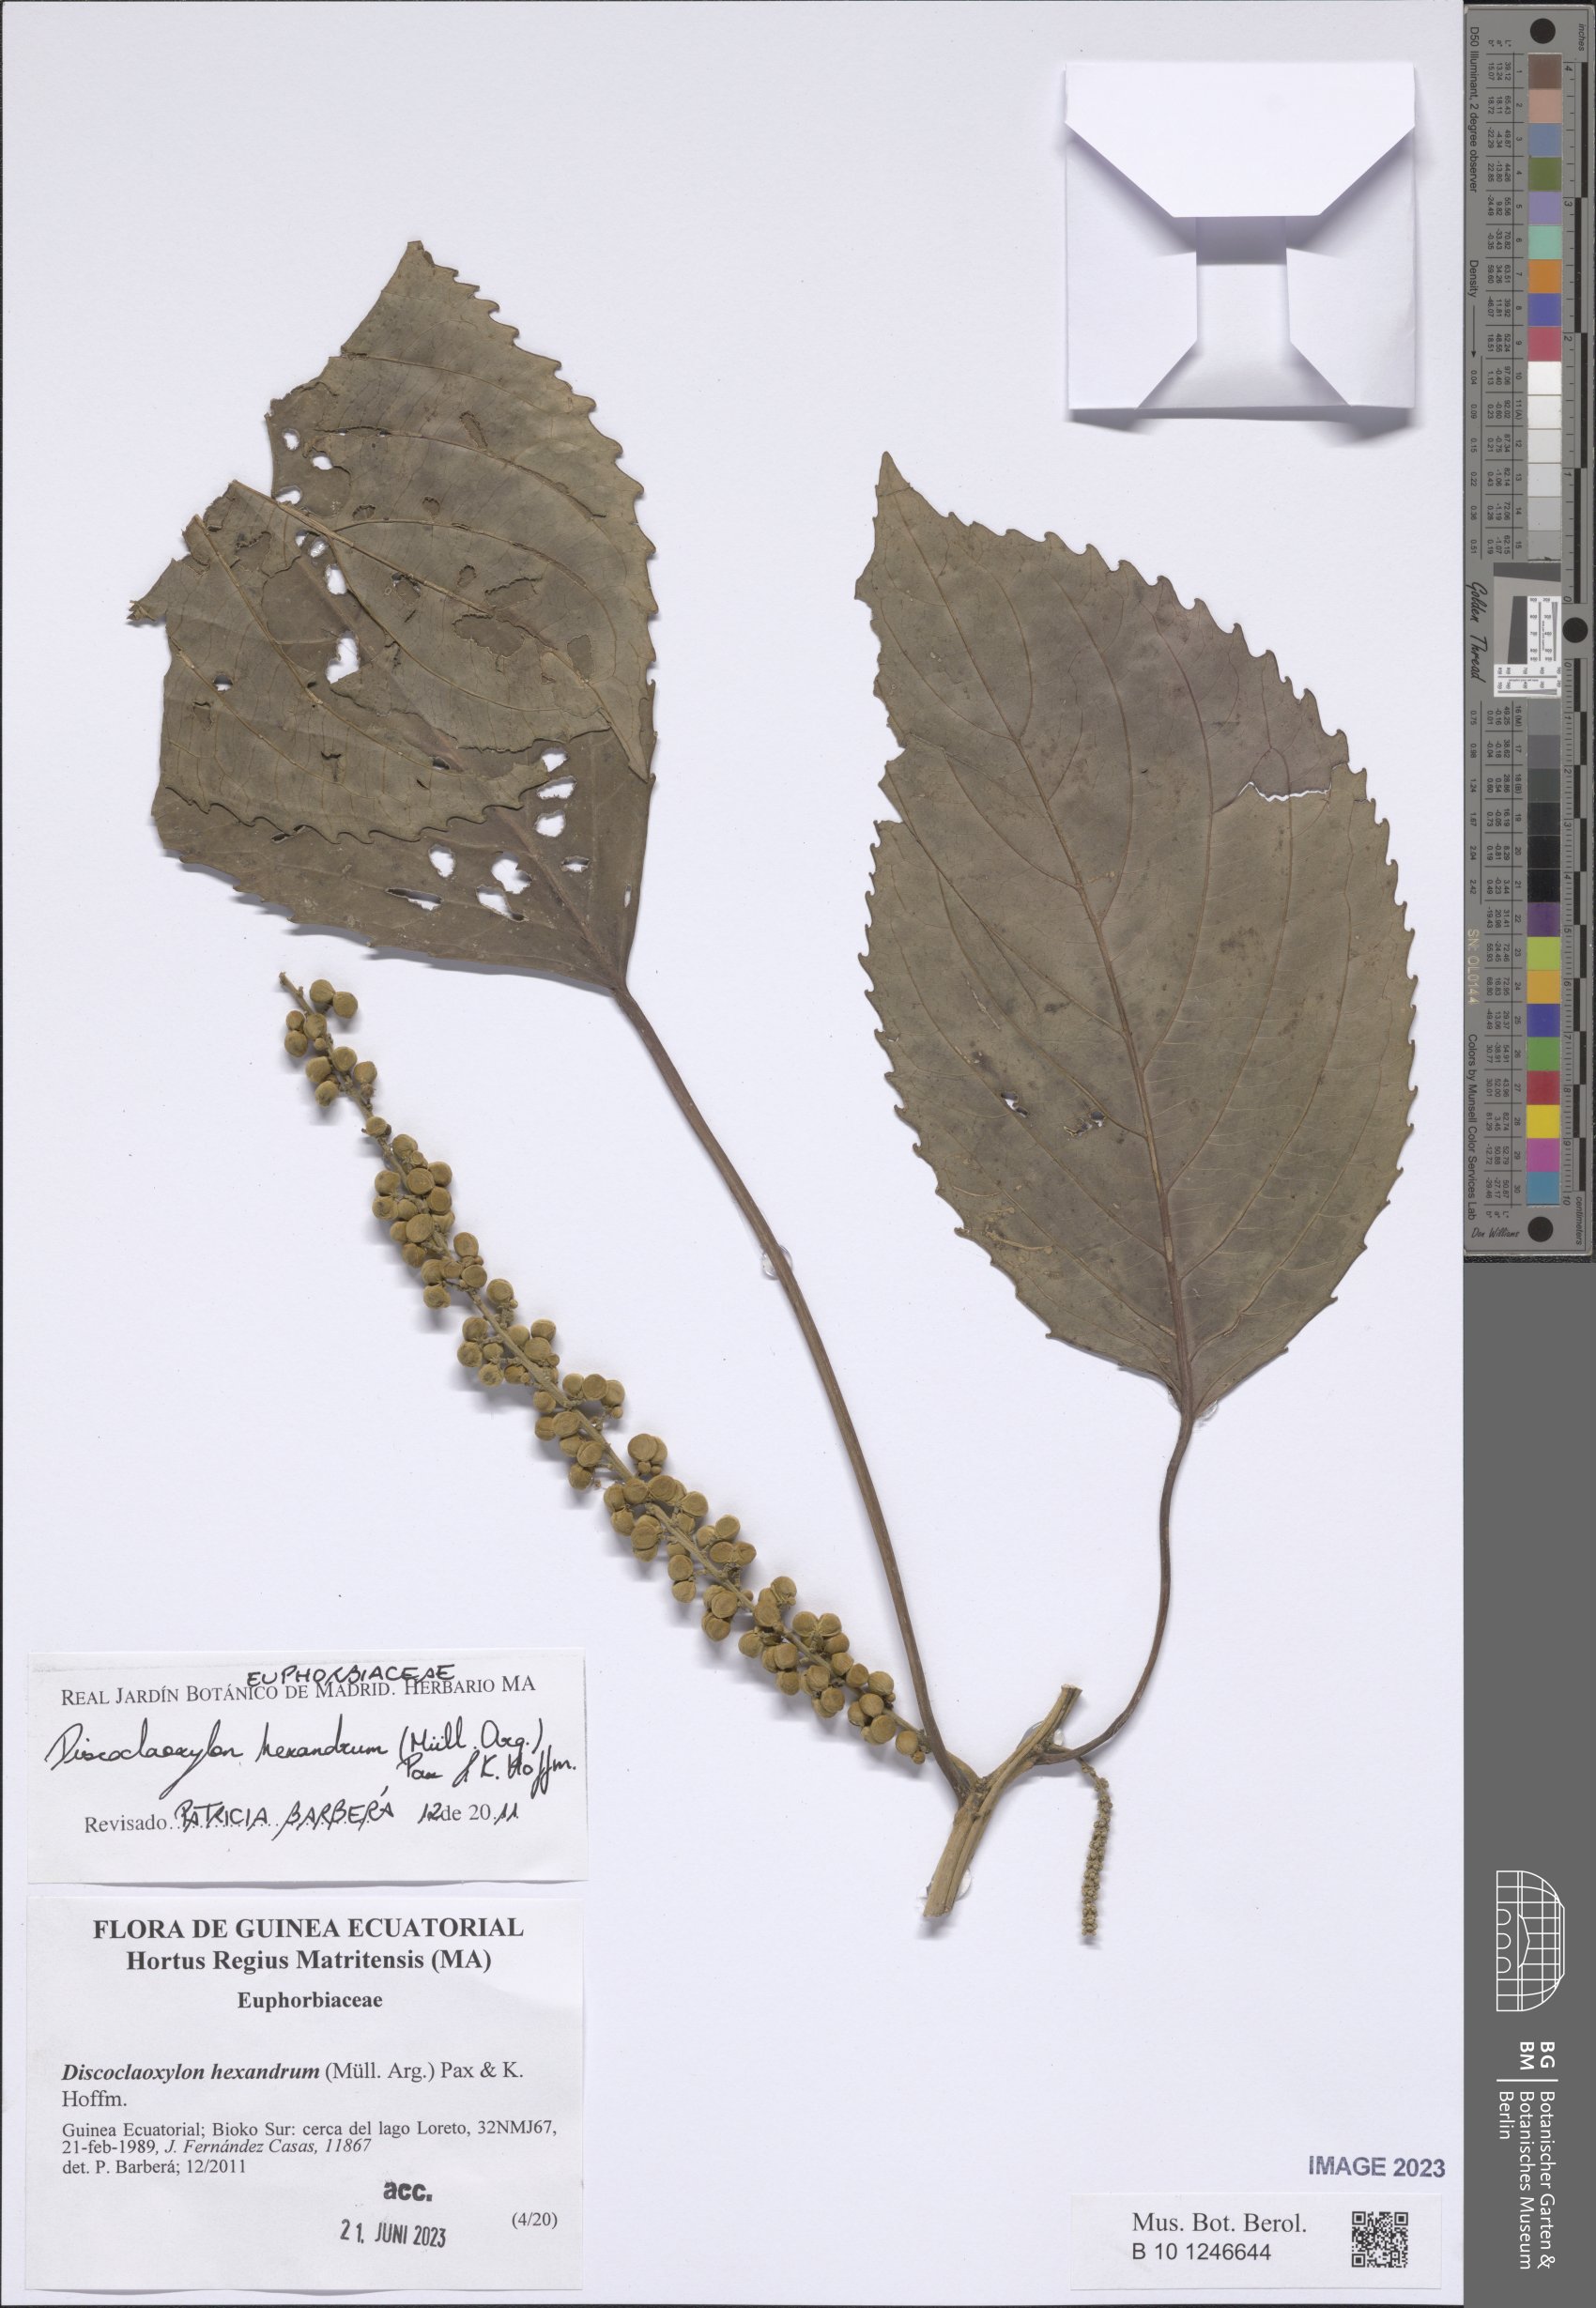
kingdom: Plantae
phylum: Tracheophyta
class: Magnoliopsida
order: Malpighiales
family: Euphorbiaceae
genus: Discoclaoxylon
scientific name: Discoclaoxylon hexandrum
